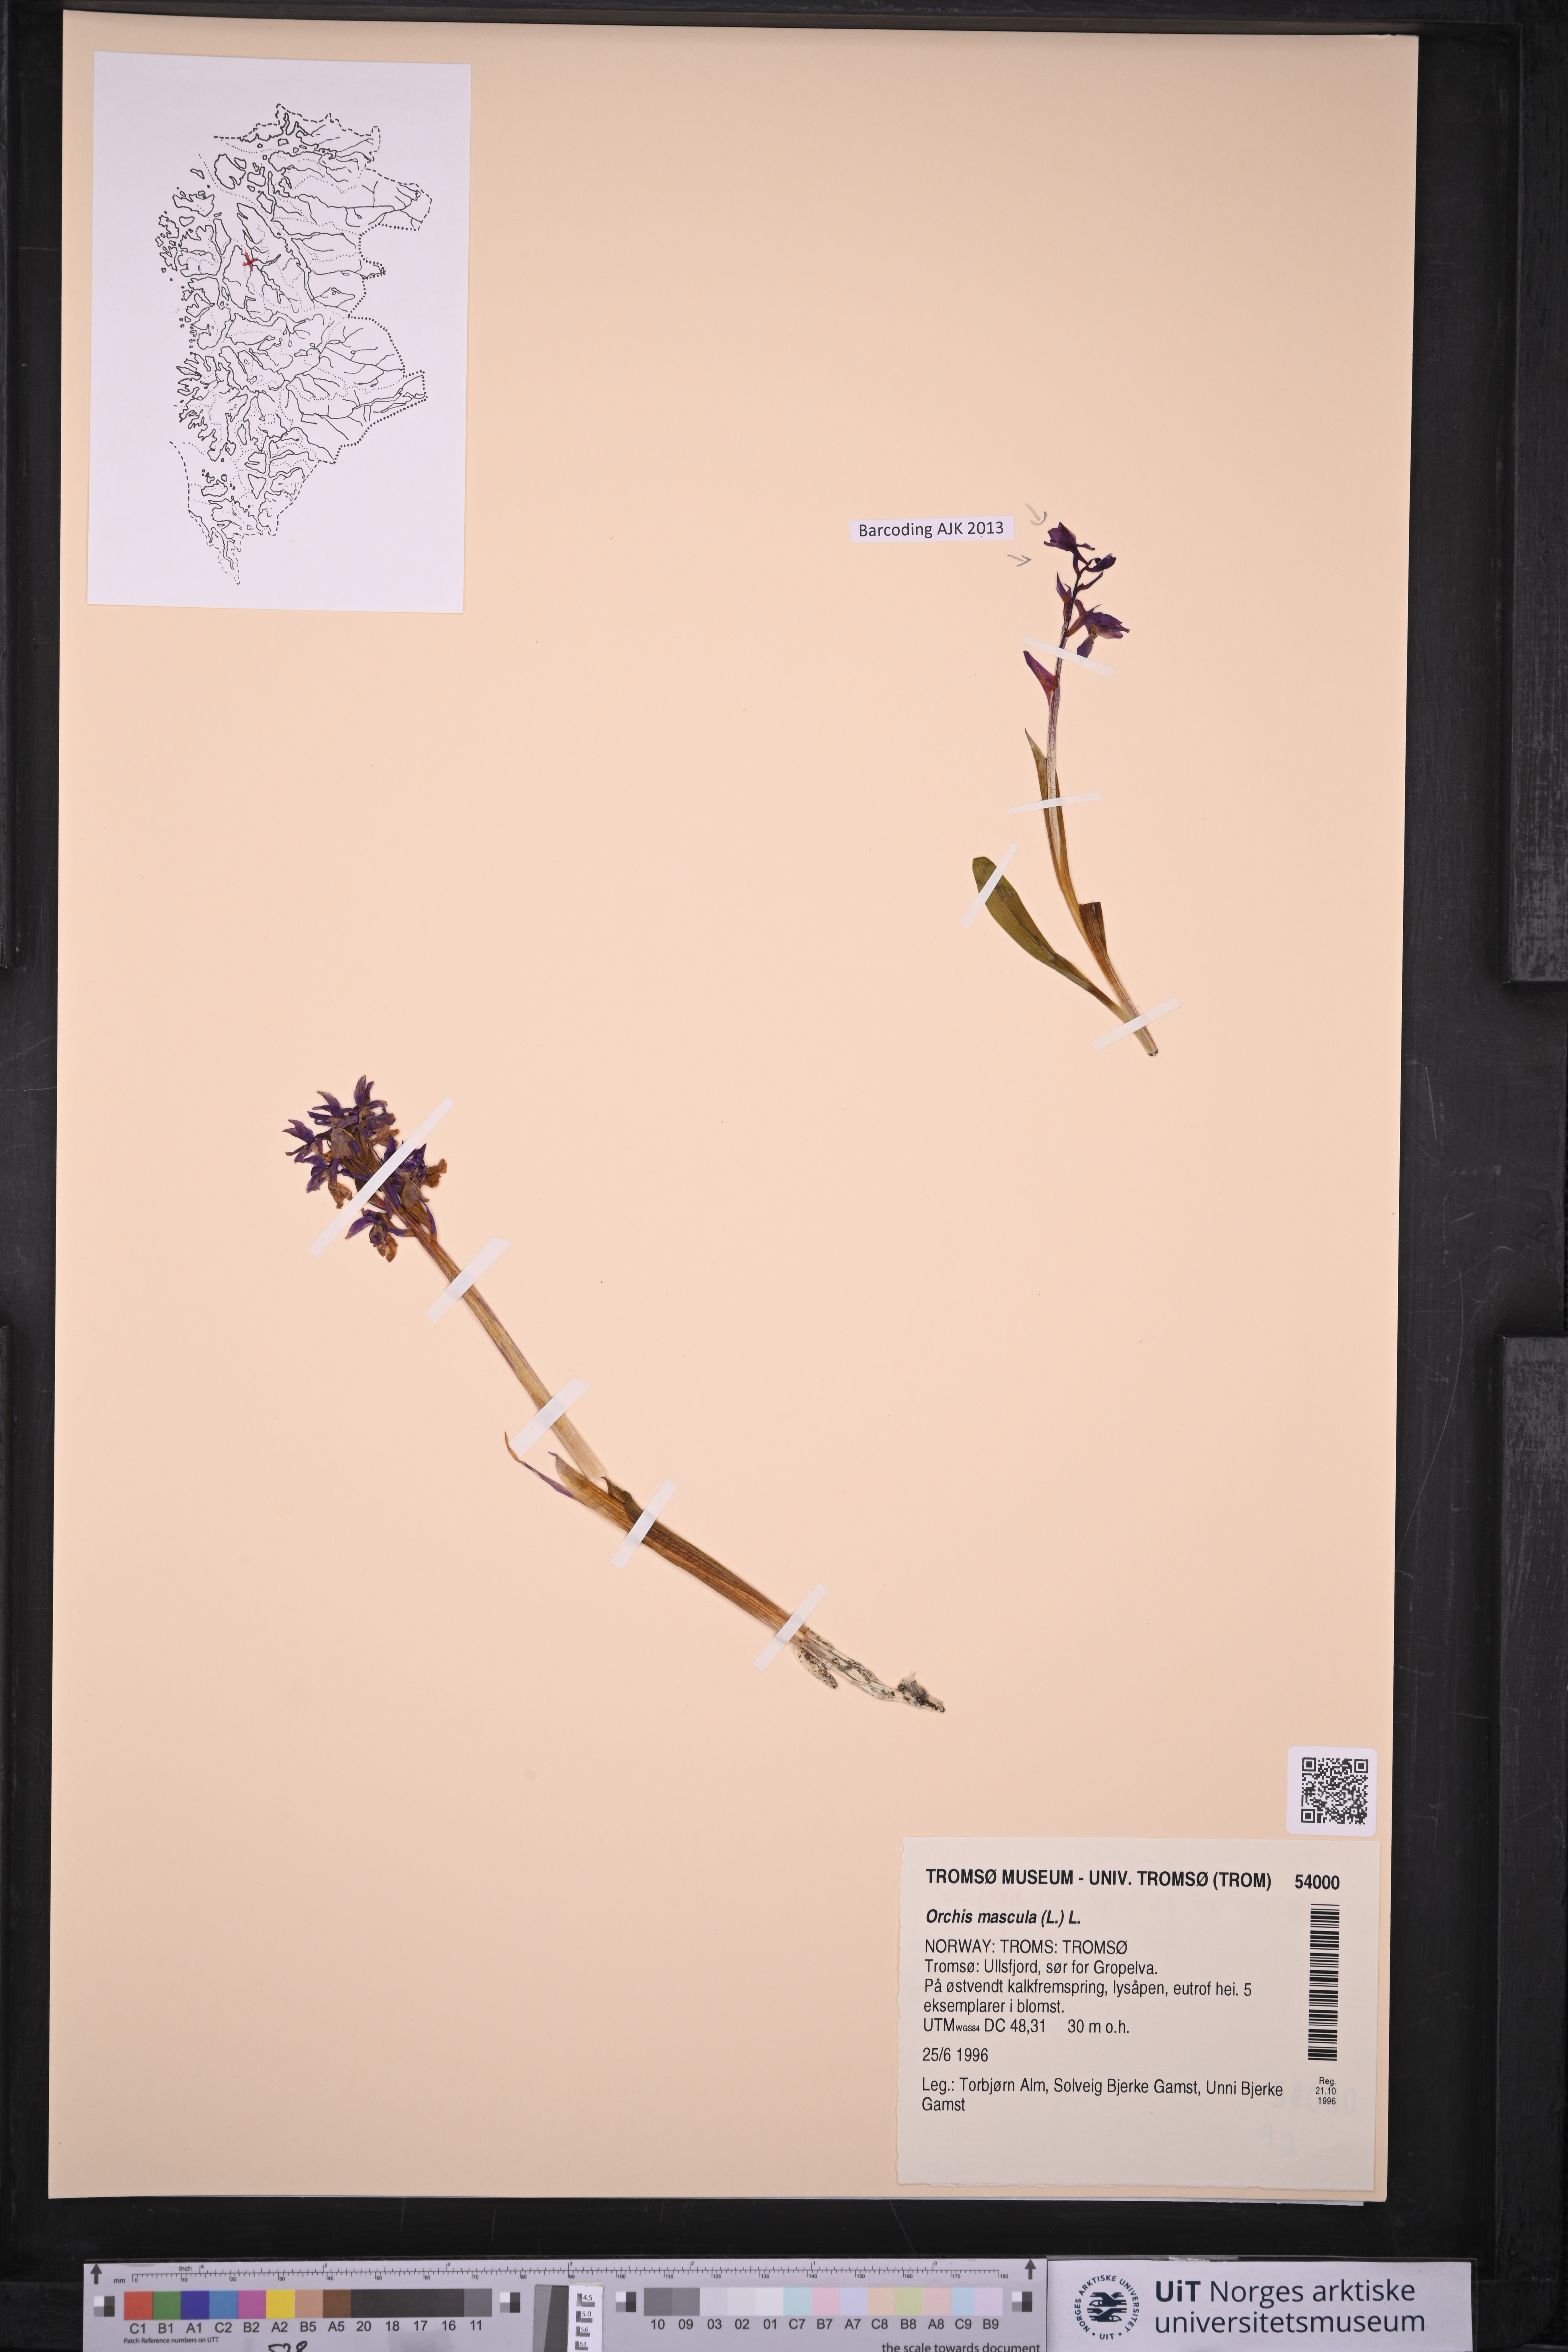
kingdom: Plantae
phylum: Tracheophyta
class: Liliopsida
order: Asparagales
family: Orchidaceae
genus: Orchis
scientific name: Orchis mascula
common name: Early-purple orchid
